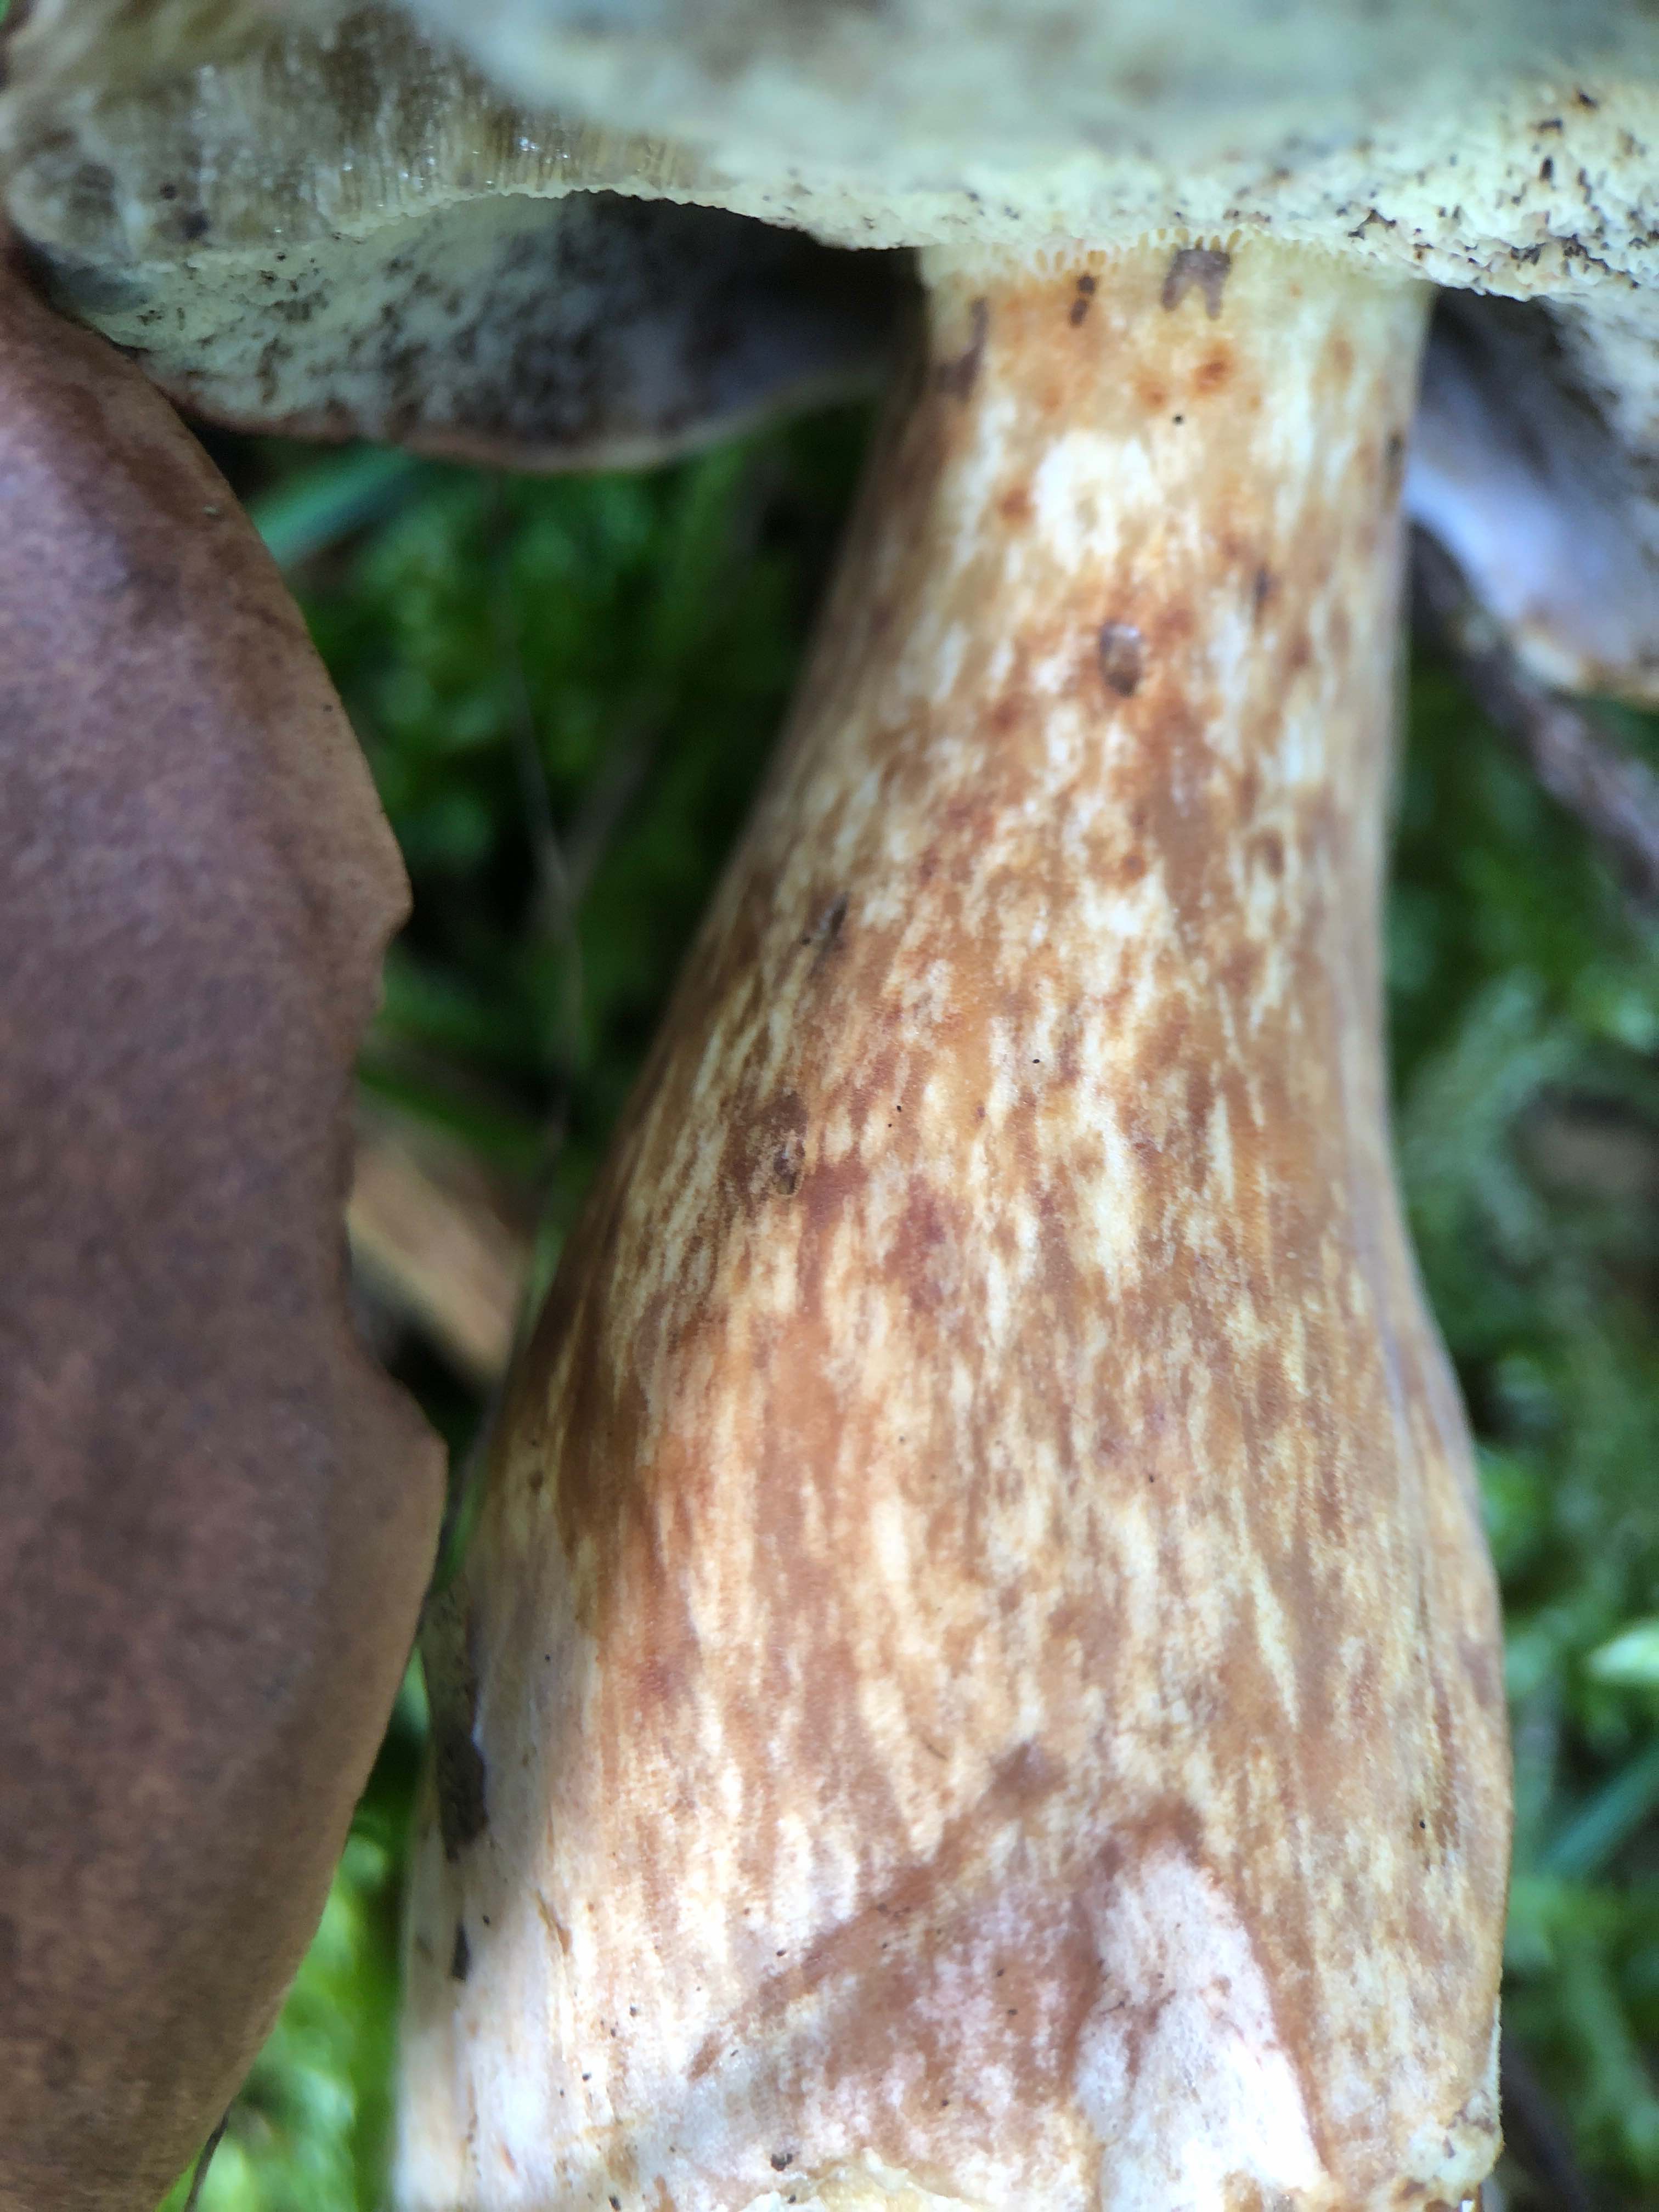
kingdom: Fungi
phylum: Basidiomycota
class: Agaricomycetes
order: Boletales
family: Boletaceae
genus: Imleria
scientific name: Imleria badia
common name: brunstokket rørhat
